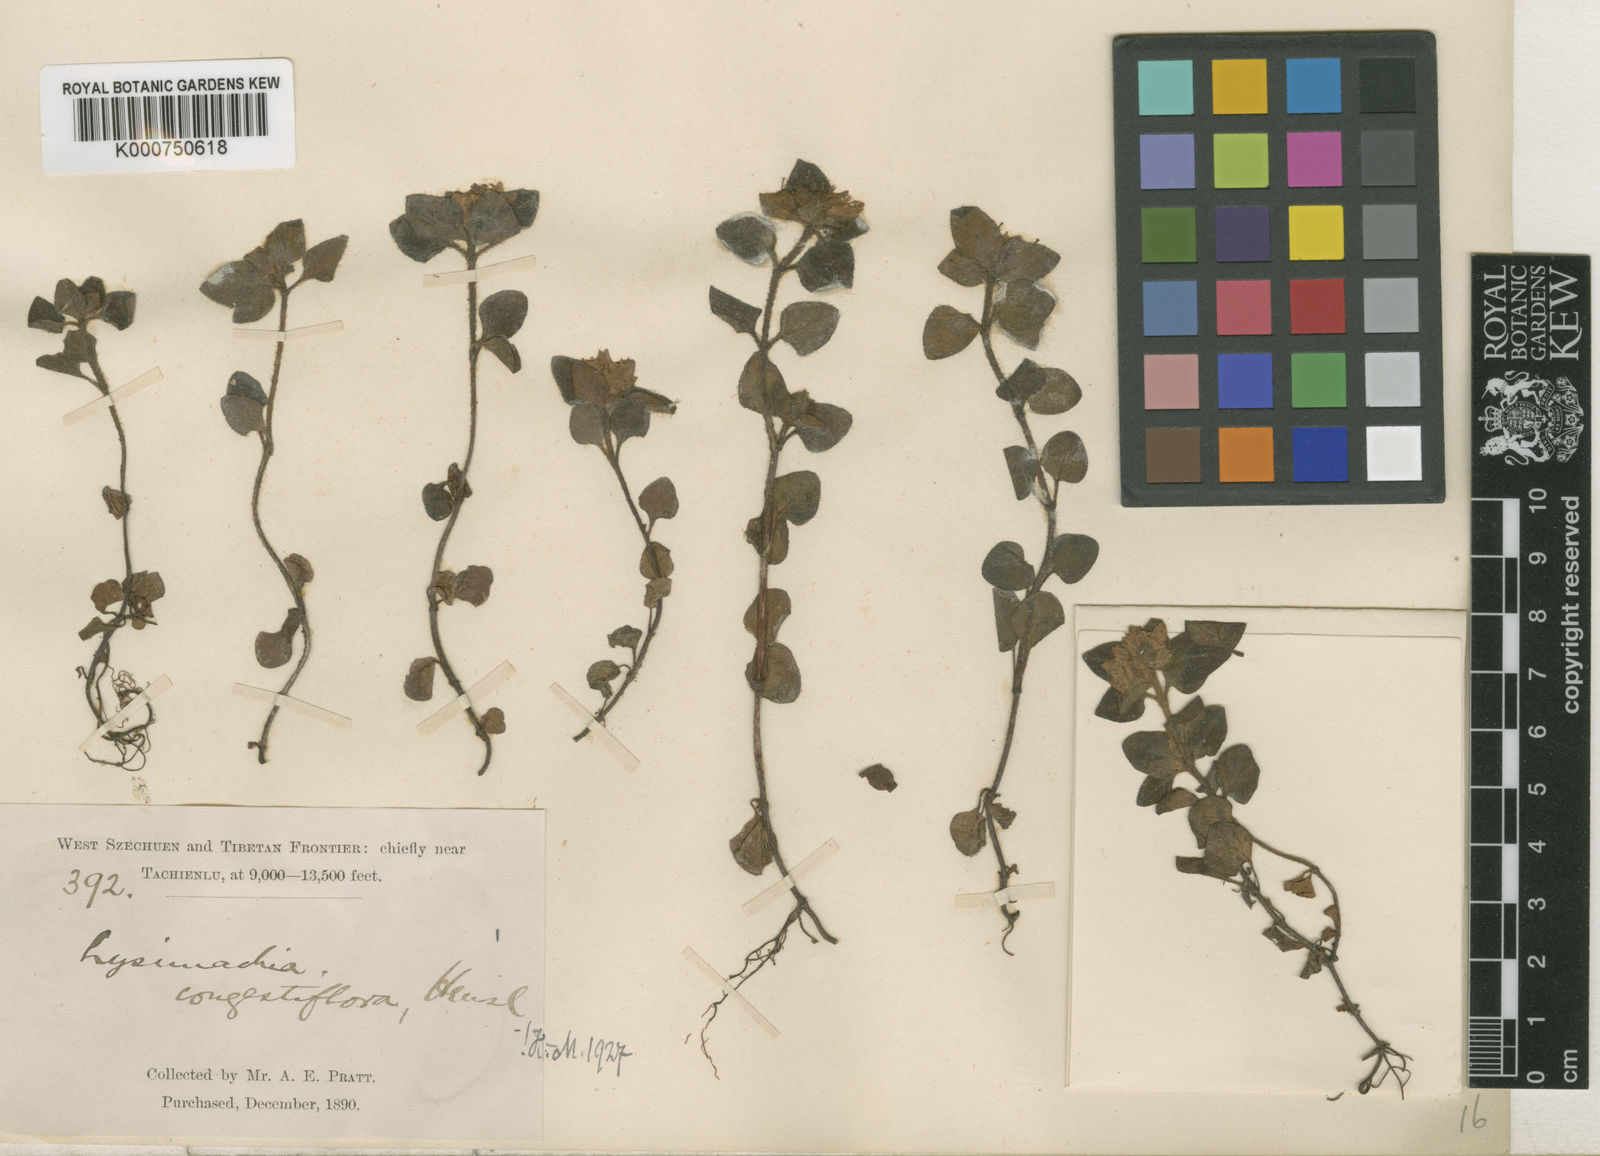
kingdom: Plantae
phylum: Tracheophyta
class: Magnoliopsida
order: Ericales
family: Primulaceae
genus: Lysimachia
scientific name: Lysimachia congestiflora
